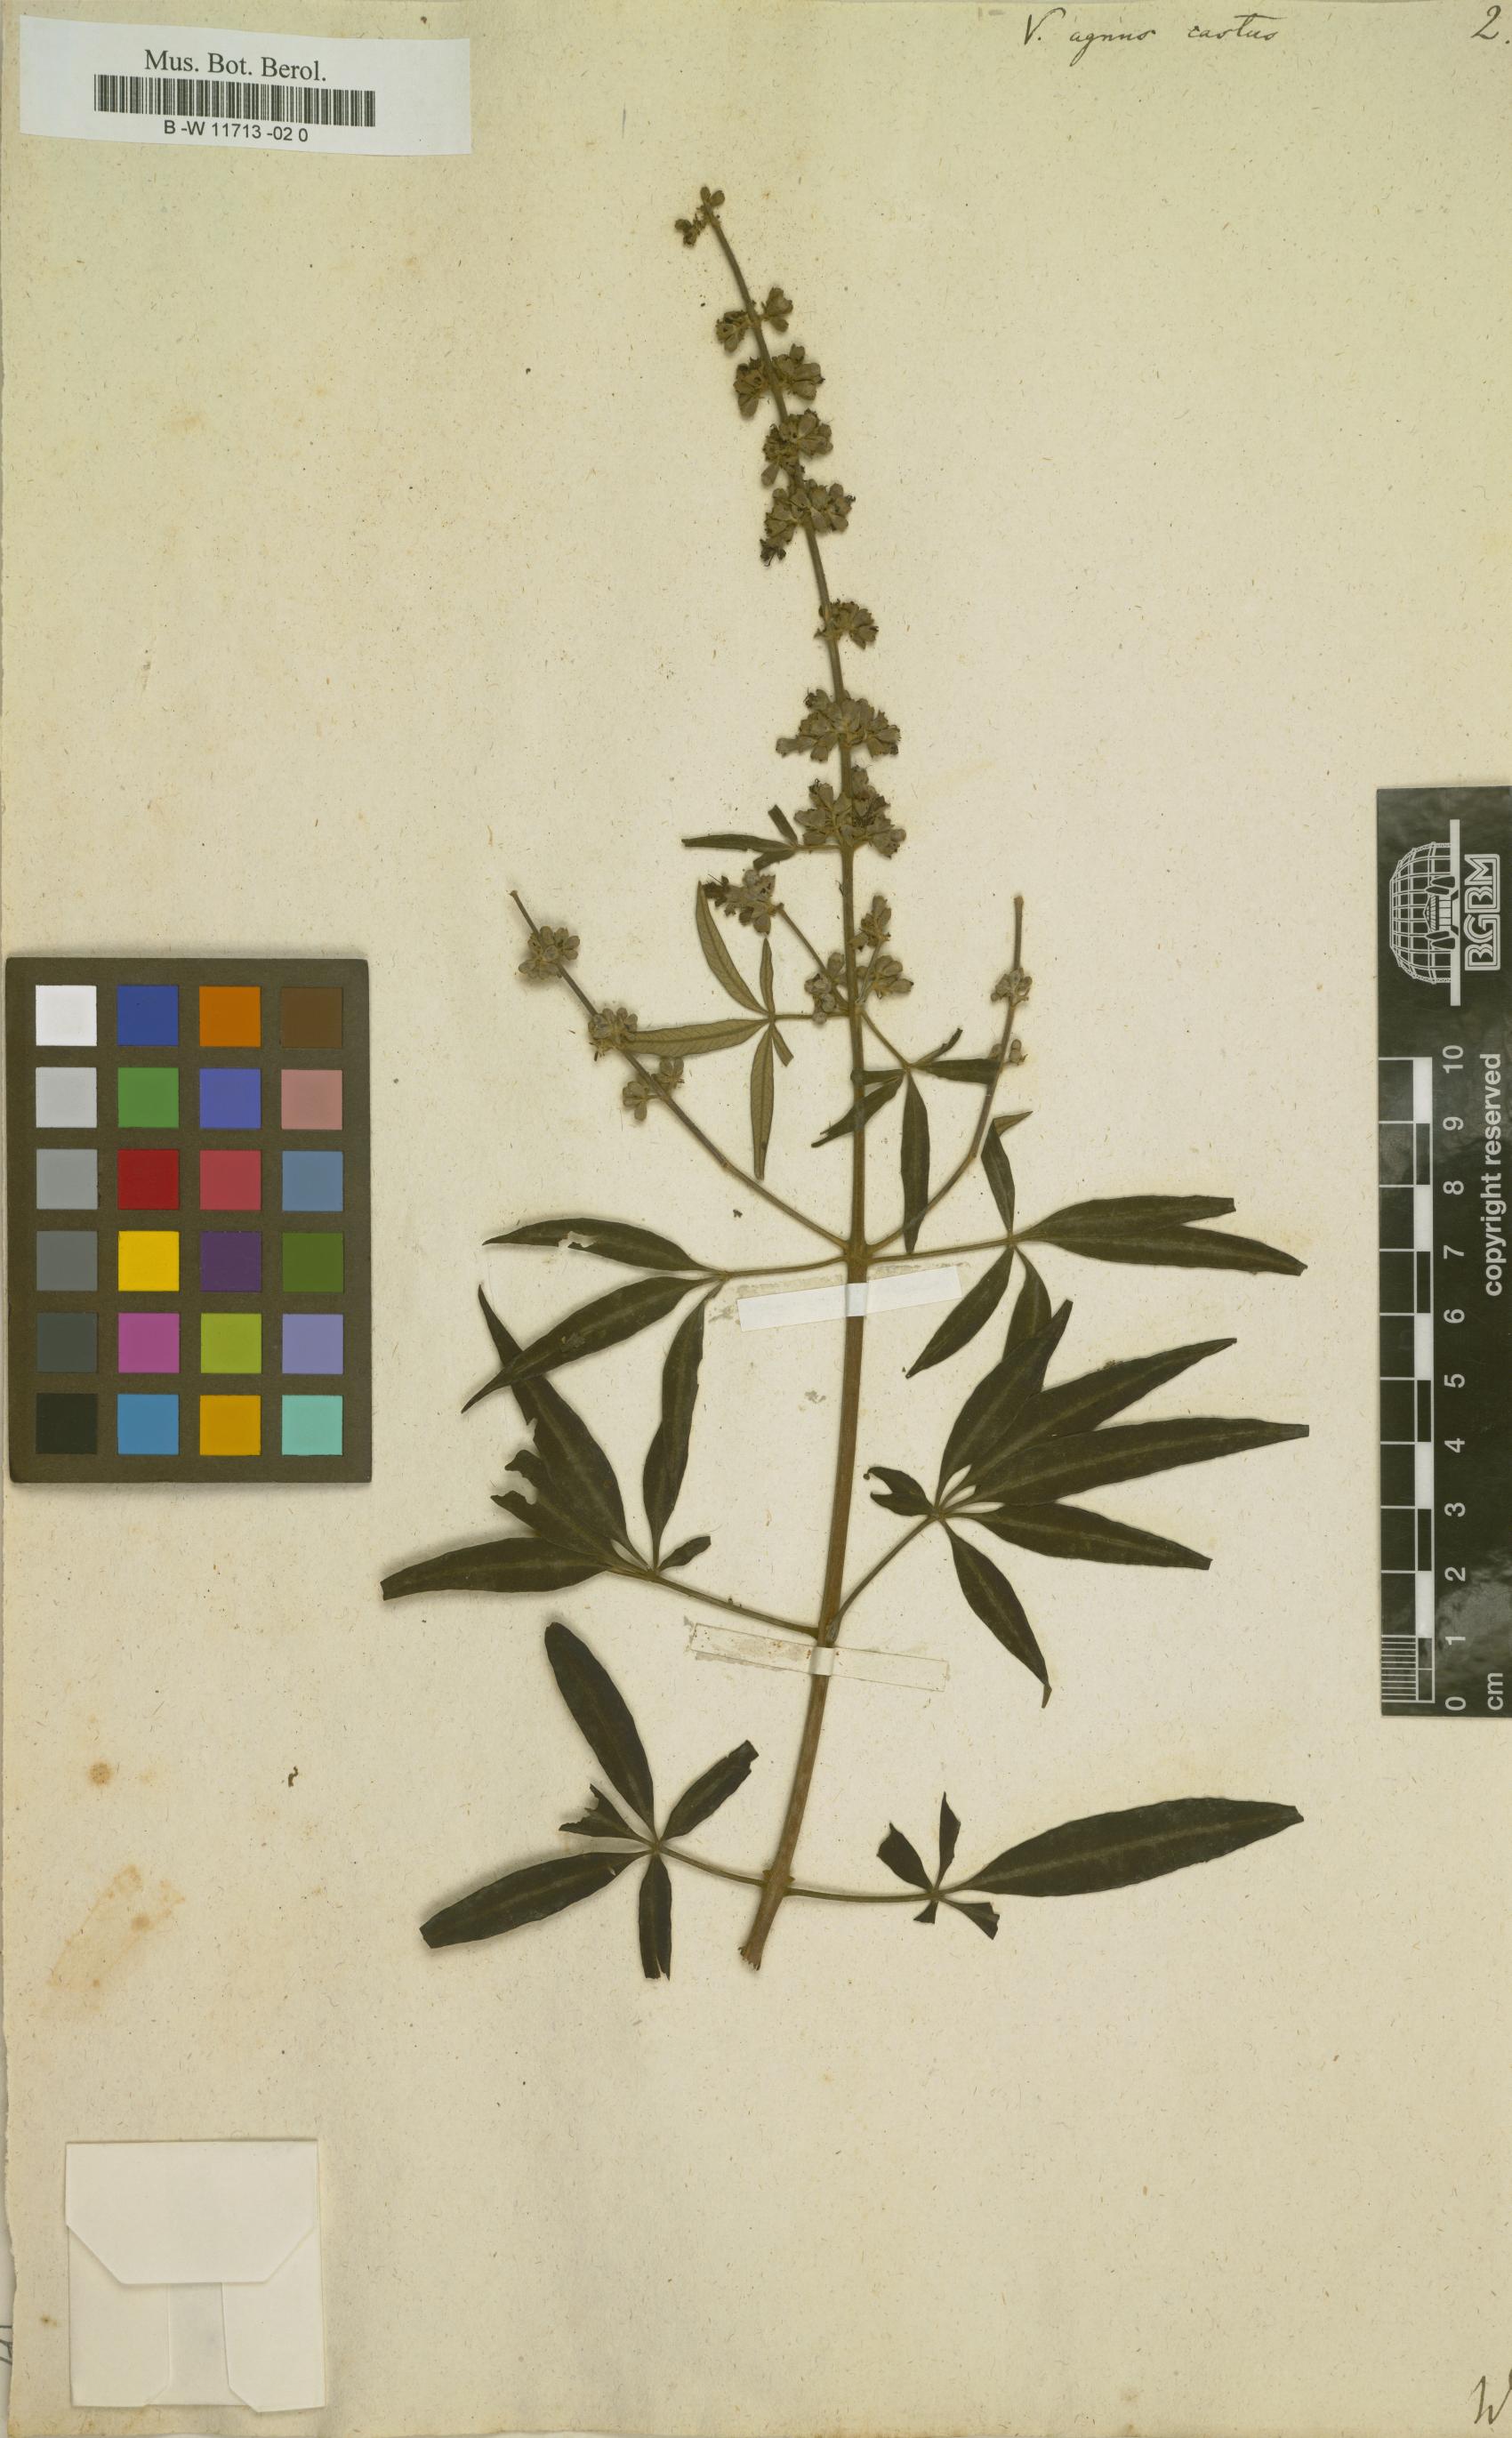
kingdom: Plantae
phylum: Tracheophyta
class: Magnoliopsida
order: Lamiales
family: Lamiaceae
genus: Vitex
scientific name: Vitex agnus-castus
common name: Chasteberry
